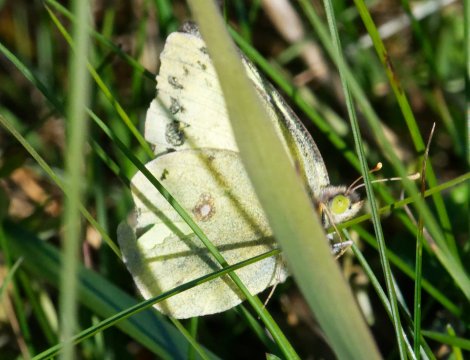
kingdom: Animalia
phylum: Arthropoda
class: Insecta
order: Lepidoptera
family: Pieridae
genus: Colias
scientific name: Colias philodice
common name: Clouded Sulphur
